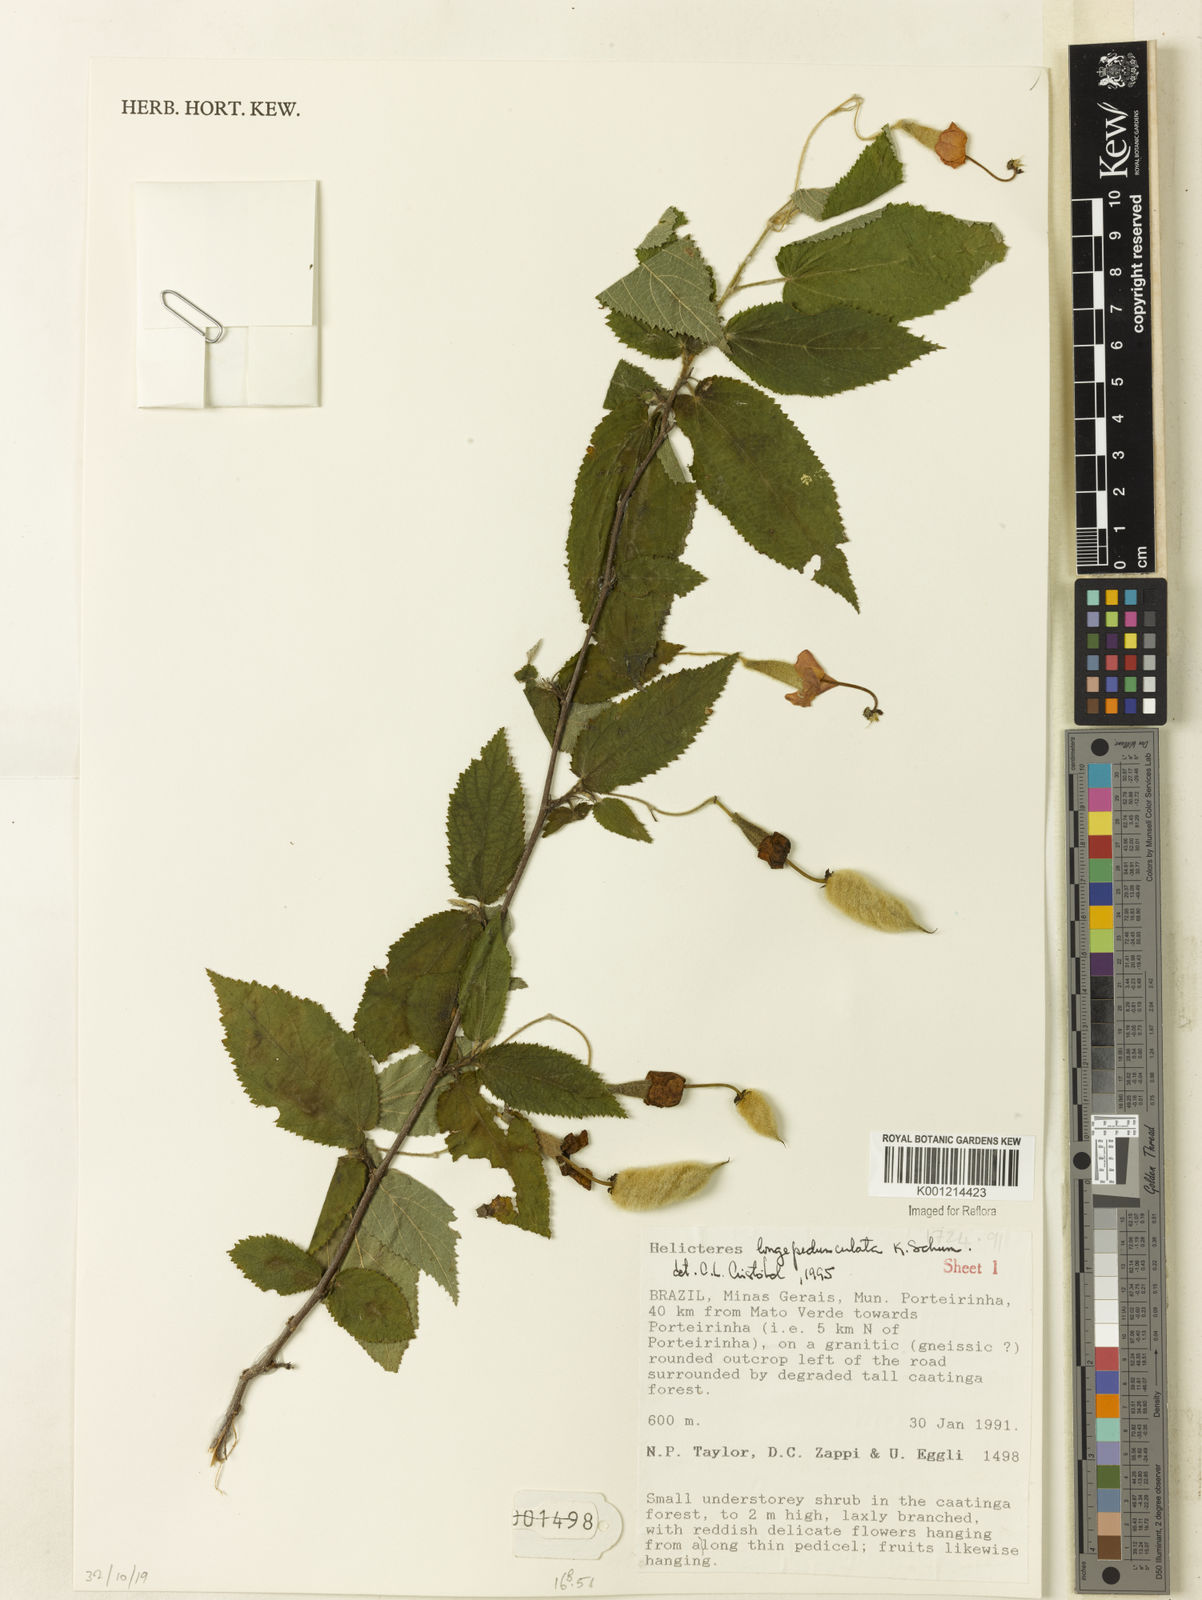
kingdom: Plantae
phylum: Tracheophyta
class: Magnoliopsida
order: Malvales
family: Malvaceae
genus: Helicteres
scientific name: Helicteres longepedunculata
